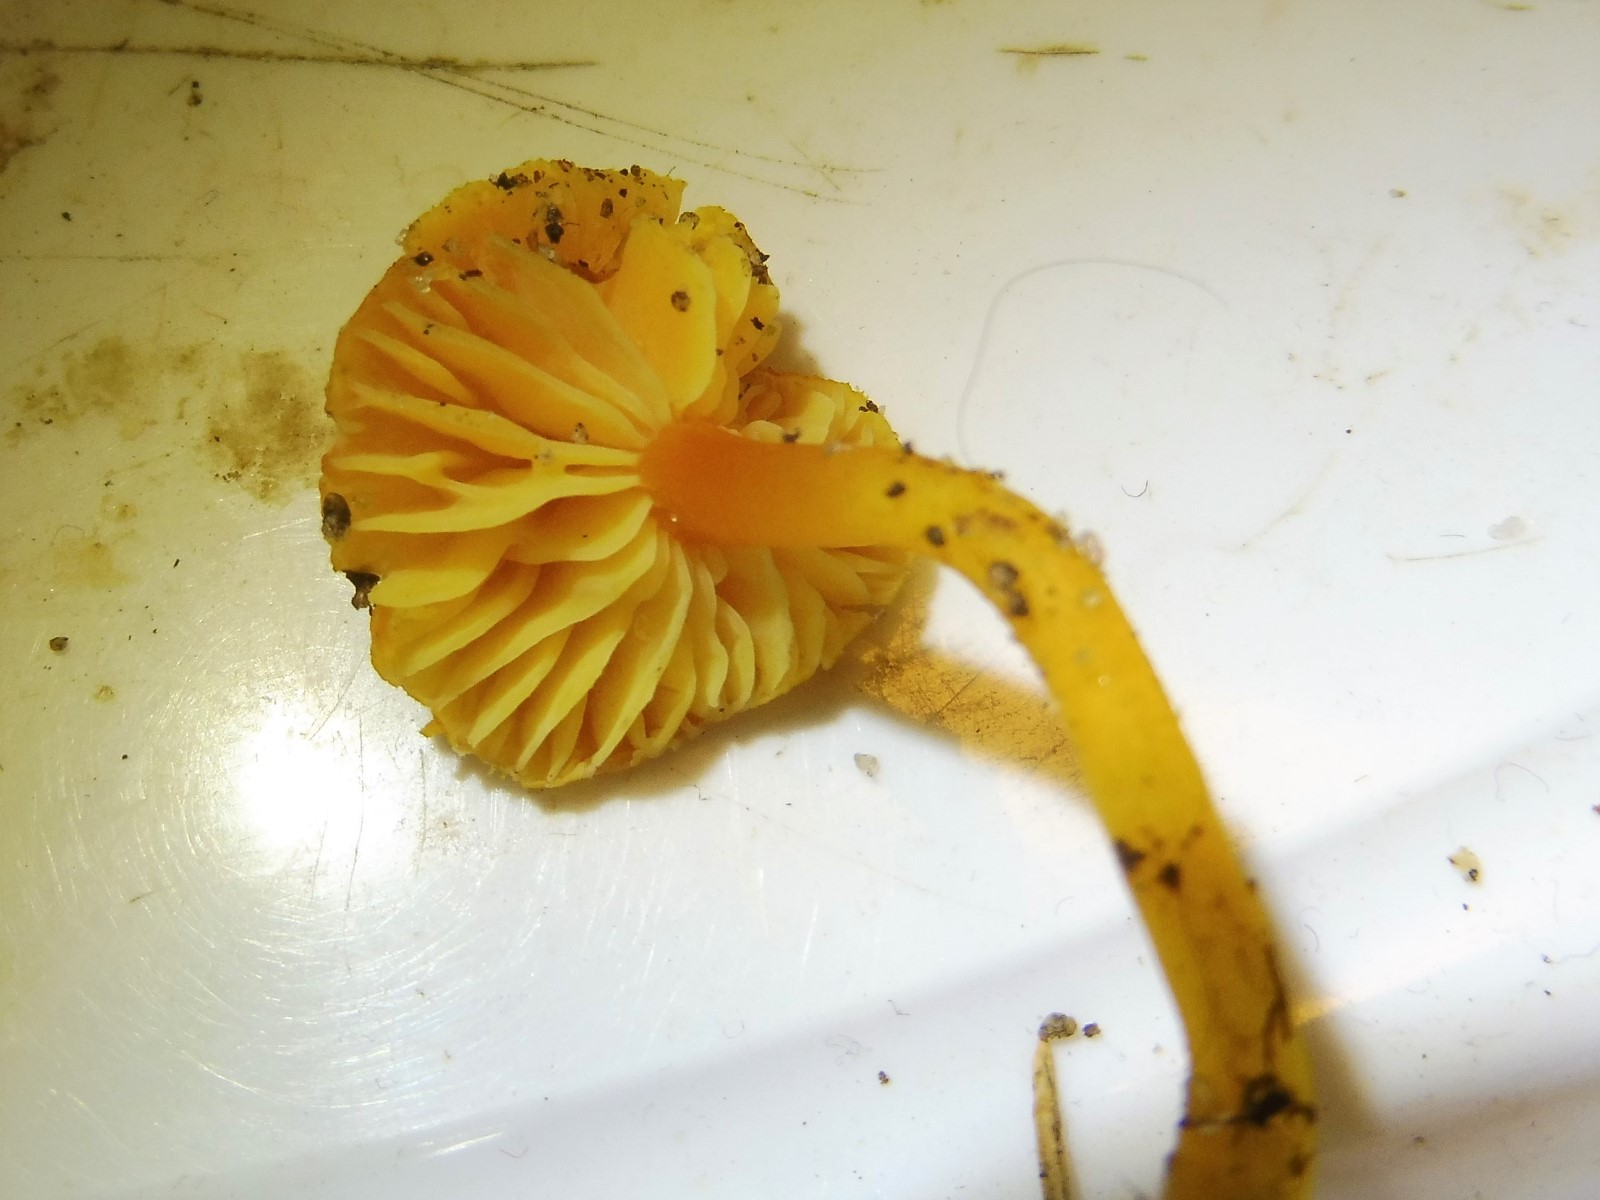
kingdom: Fungi
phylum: Basidiomycota
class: Agaricomycetes
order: Agaricales
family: Hygrophoraceae
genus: Hygrocybe
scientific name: Hygrocybe miniata
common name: mønje-vokshat
